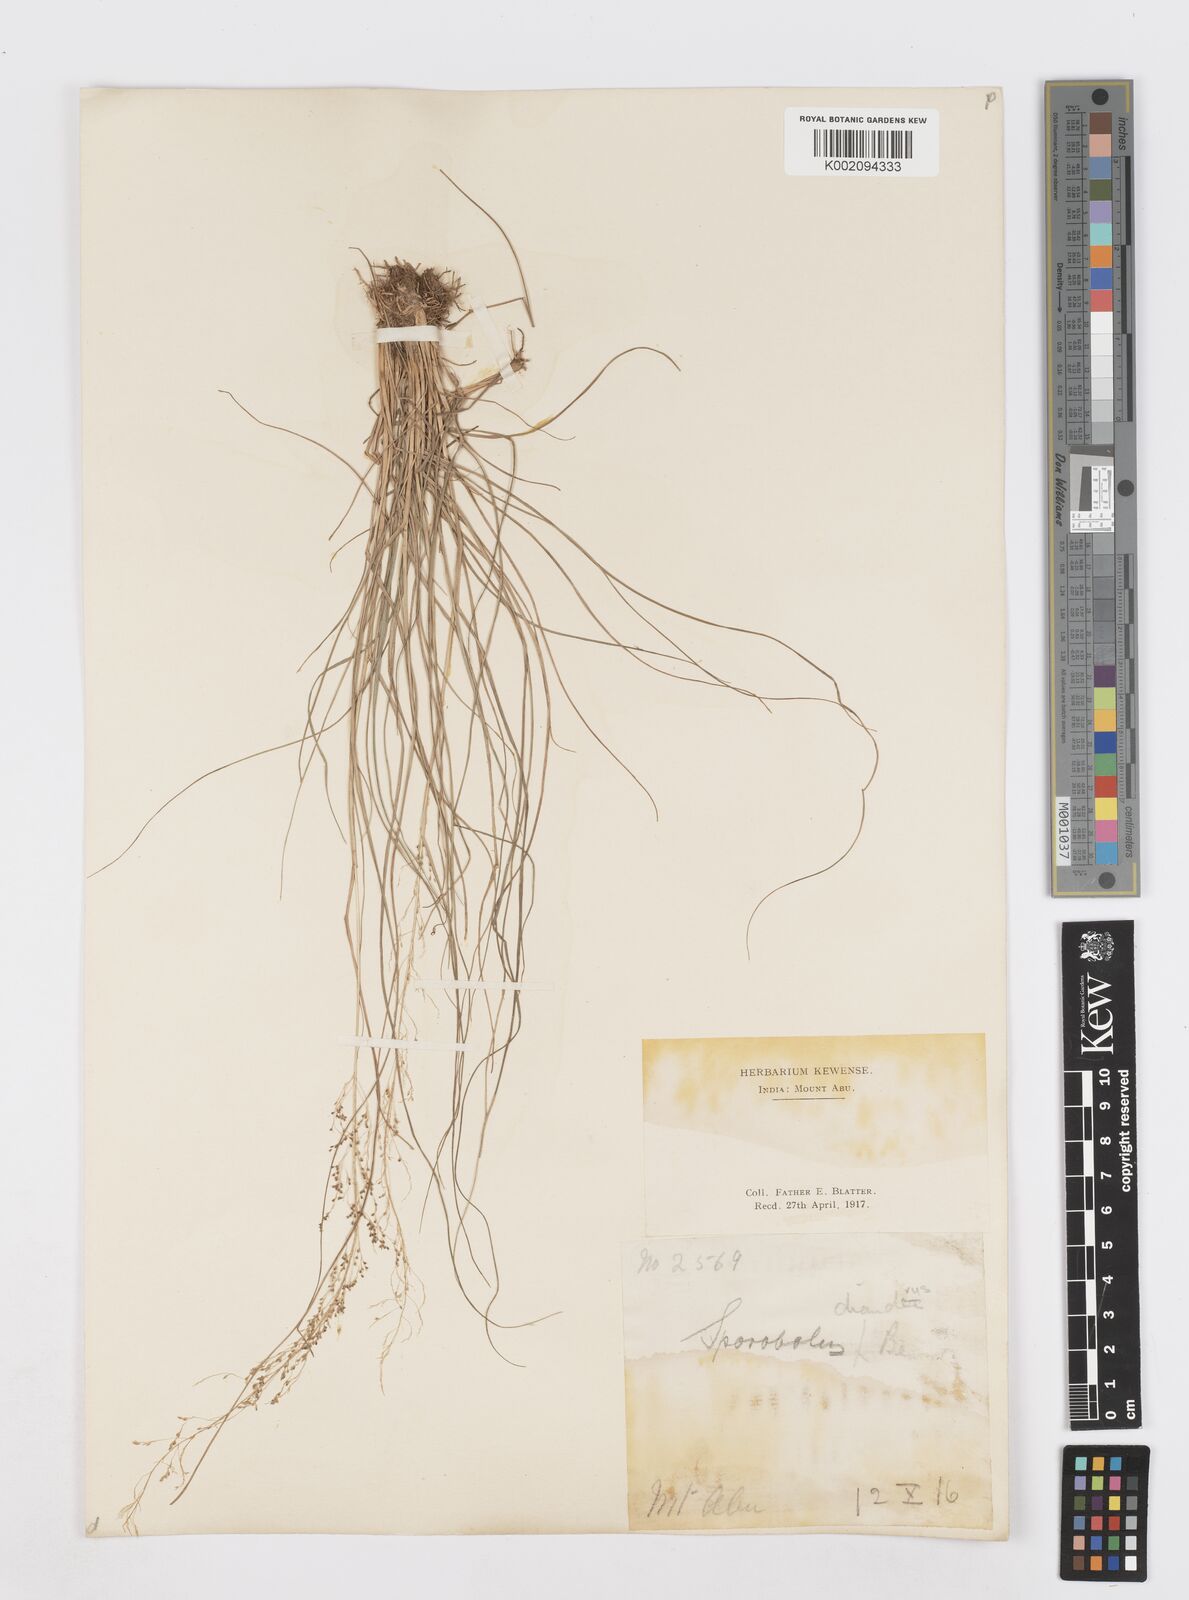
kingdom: Plantae
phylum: Tracheophyta
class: Liliopsida
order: Poales
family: Poaceae
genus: Sporobolus
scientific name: Sporobolus diandrus
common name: Tussock dropseed
